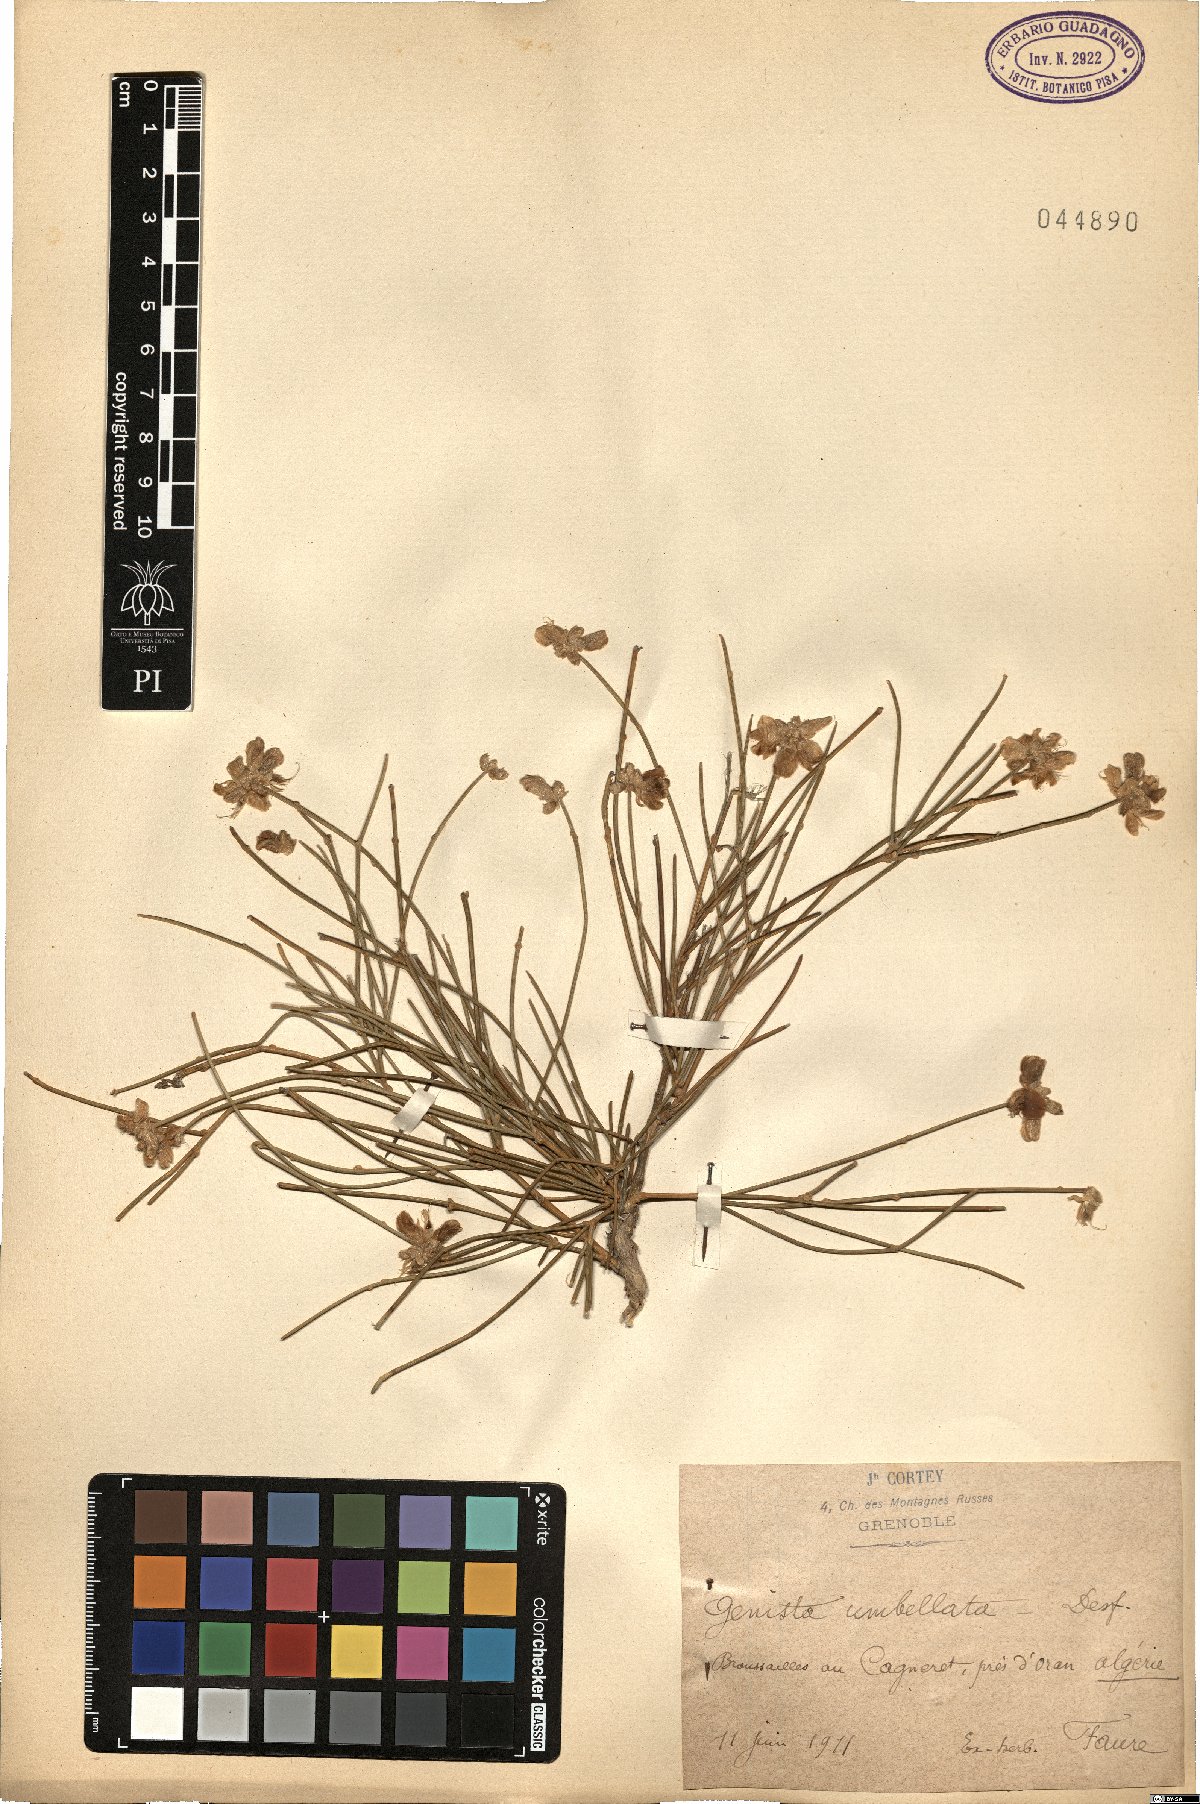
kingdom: Plantae
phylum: Tracheophyta
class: Magnoliopsida
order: Fabales
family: Fabaceae
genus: Genista
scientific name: Genista umbellata
